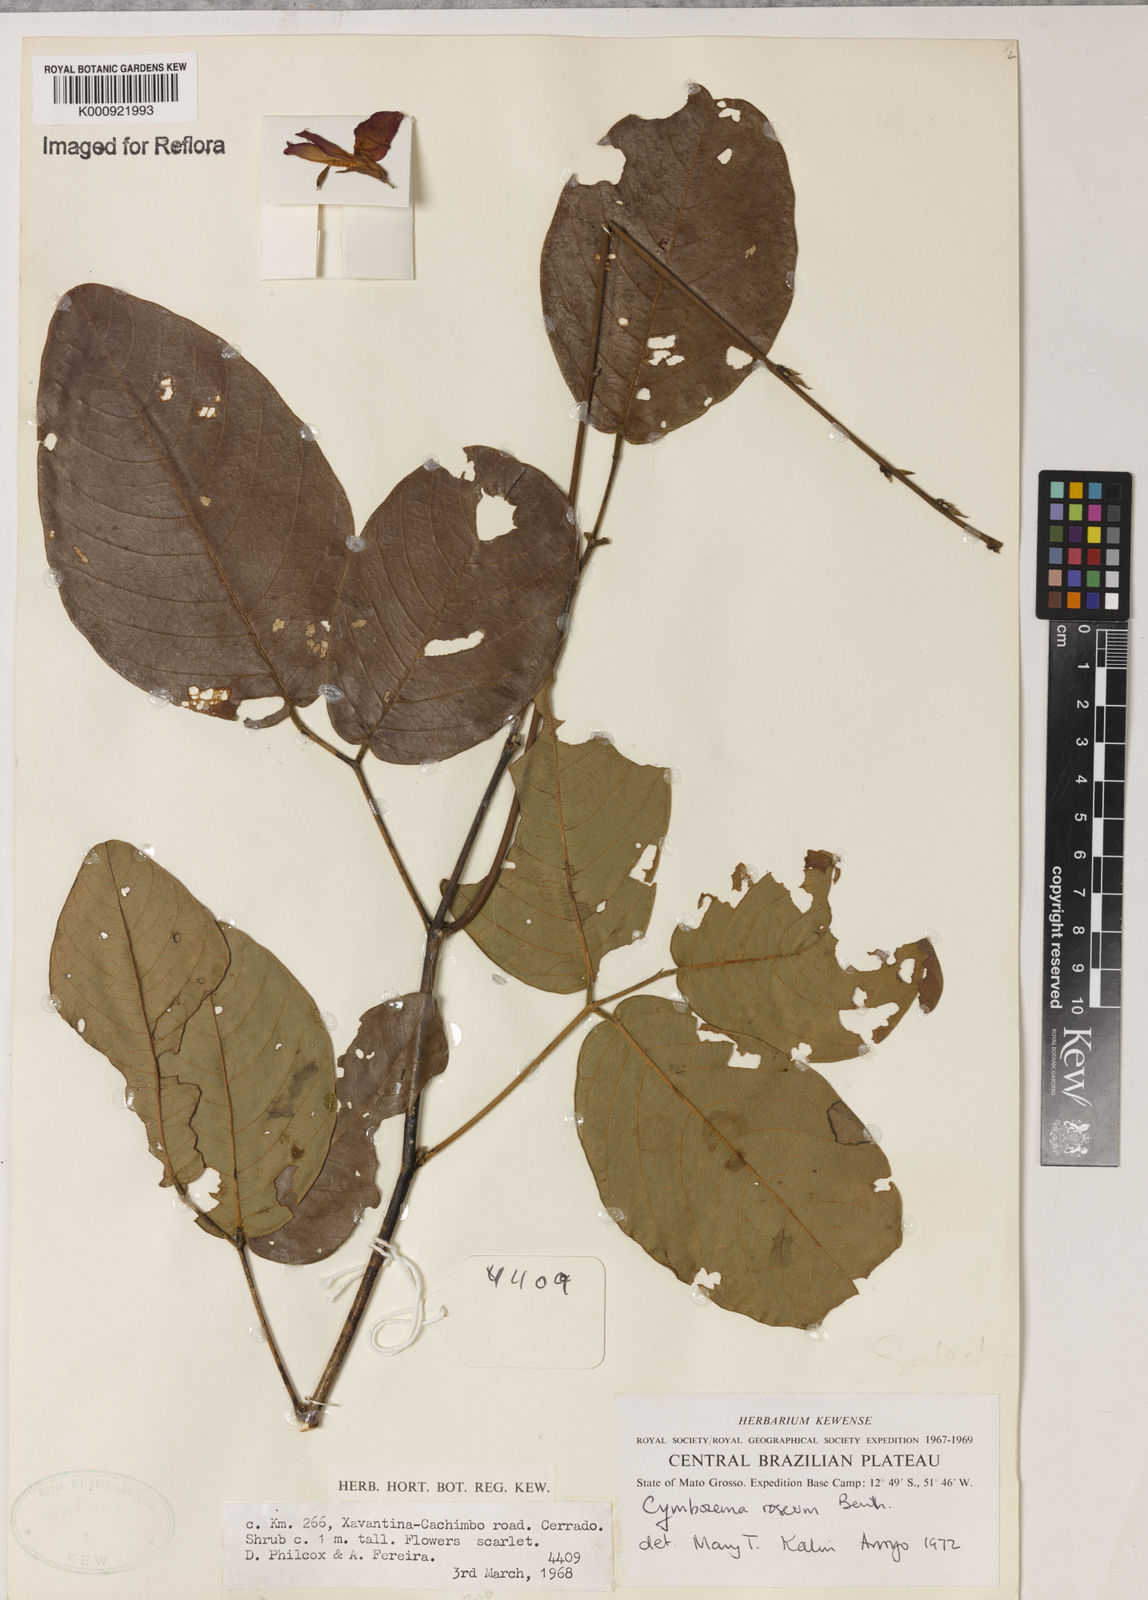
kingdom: Plantae
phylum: Tracheophyta
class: Magnoliopsida
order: Fabales
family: Fabaceae
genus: Cymbosema
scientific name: Cymbosema roseum
